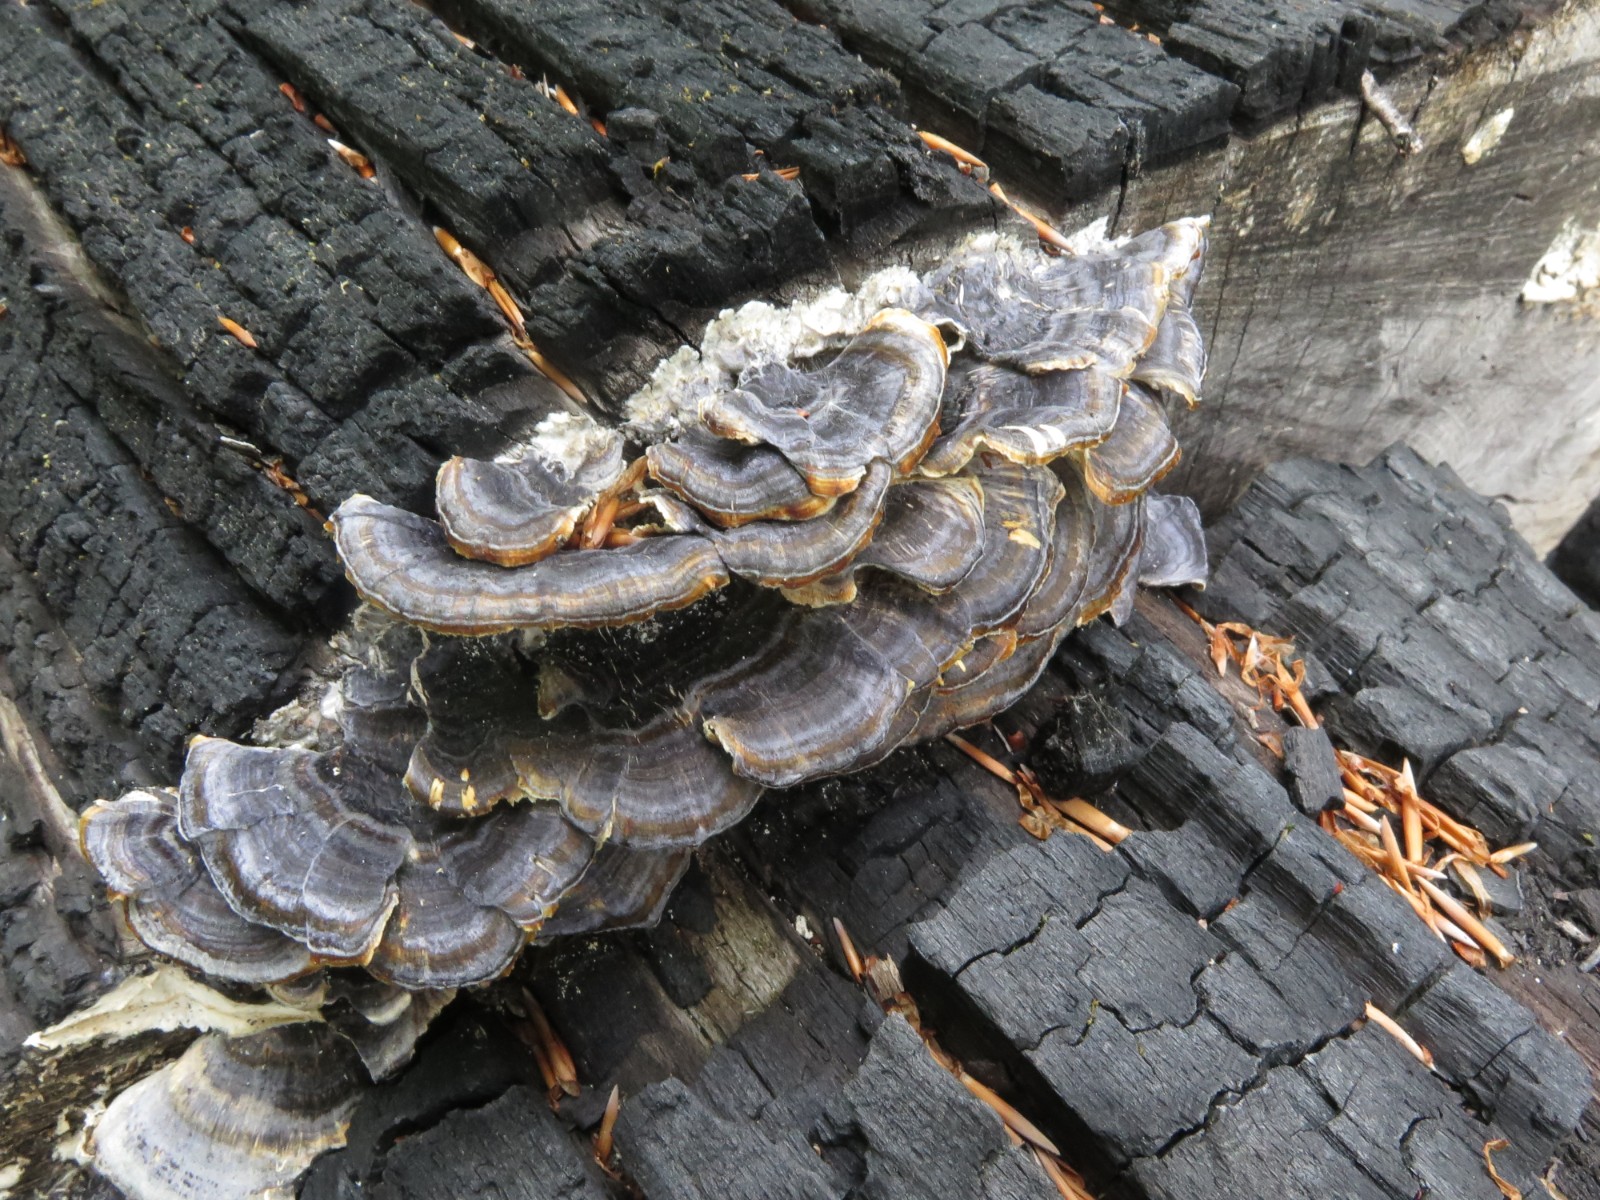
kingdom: Fungi
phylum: Basidiomycota
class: Agaricomycetes
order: Polyporales
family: Polyporaceae
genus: Trametes
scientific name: Trametes versicolor
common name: broget læderporesvamp
